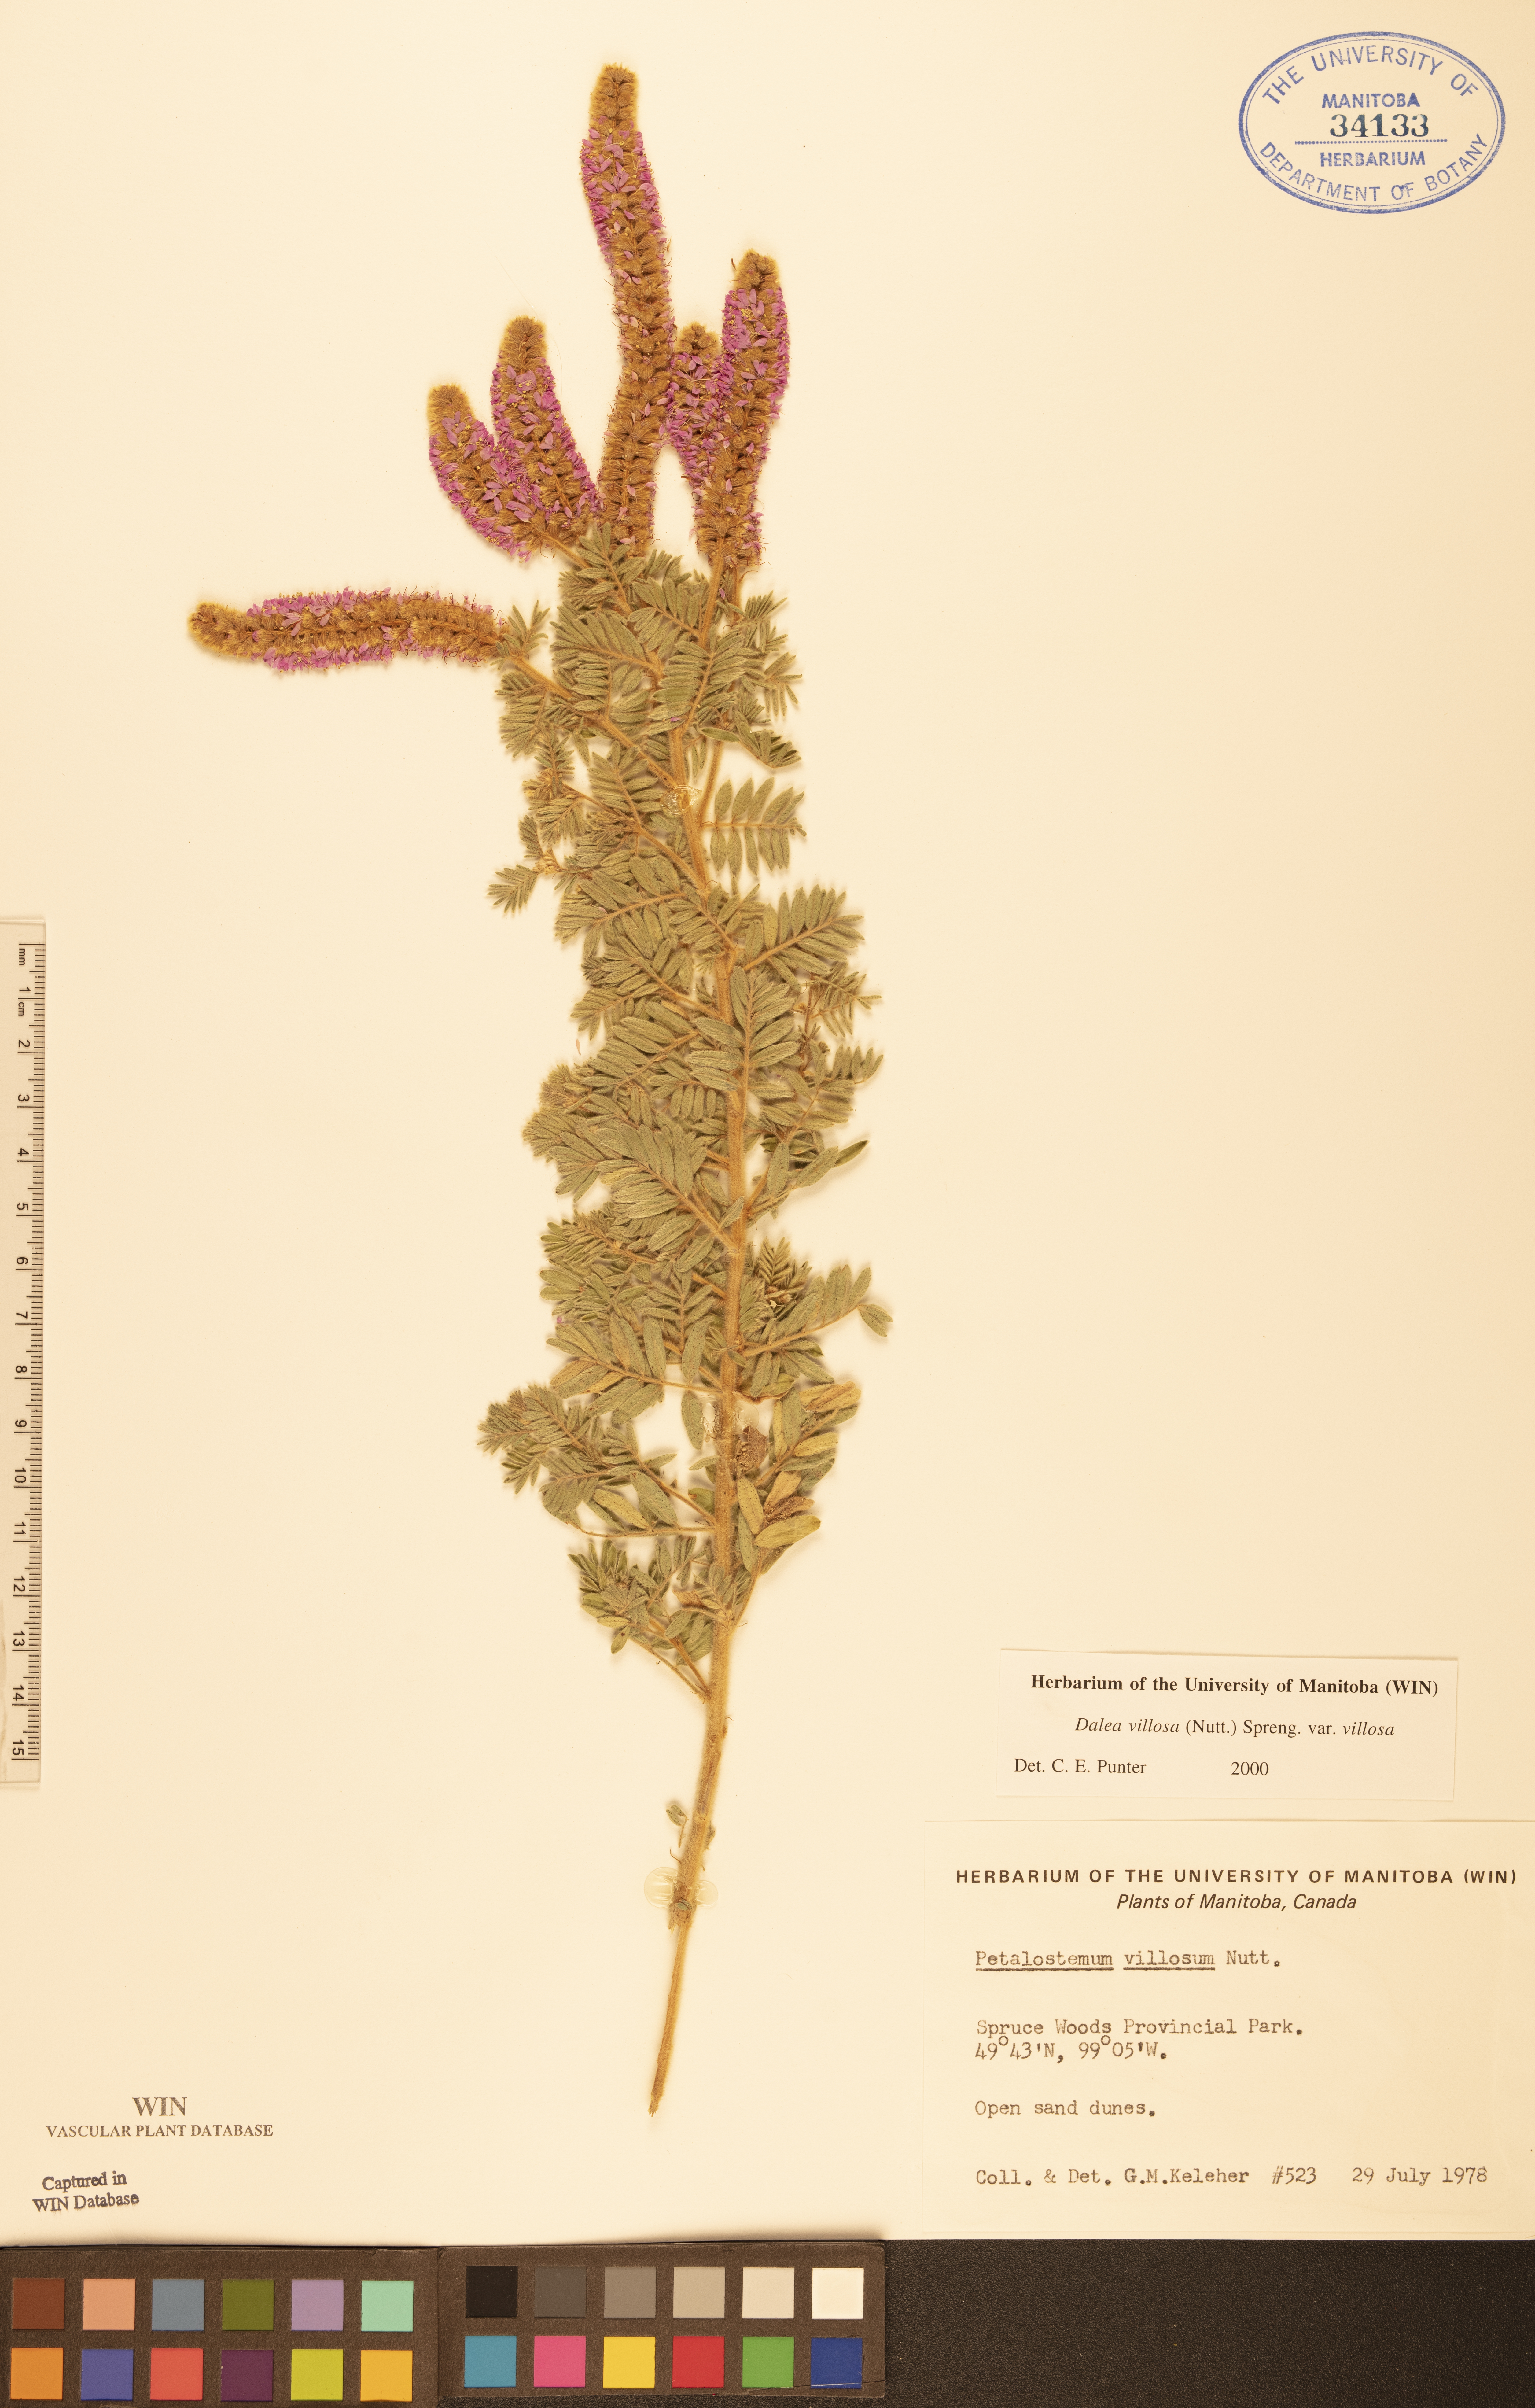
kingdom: Plantae
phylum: Tracheophyta
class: Magnoliopsida
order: Fabales
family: Fabaceae
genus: Dalea
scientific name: Dalea villosa
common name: Silky prairie-clover
